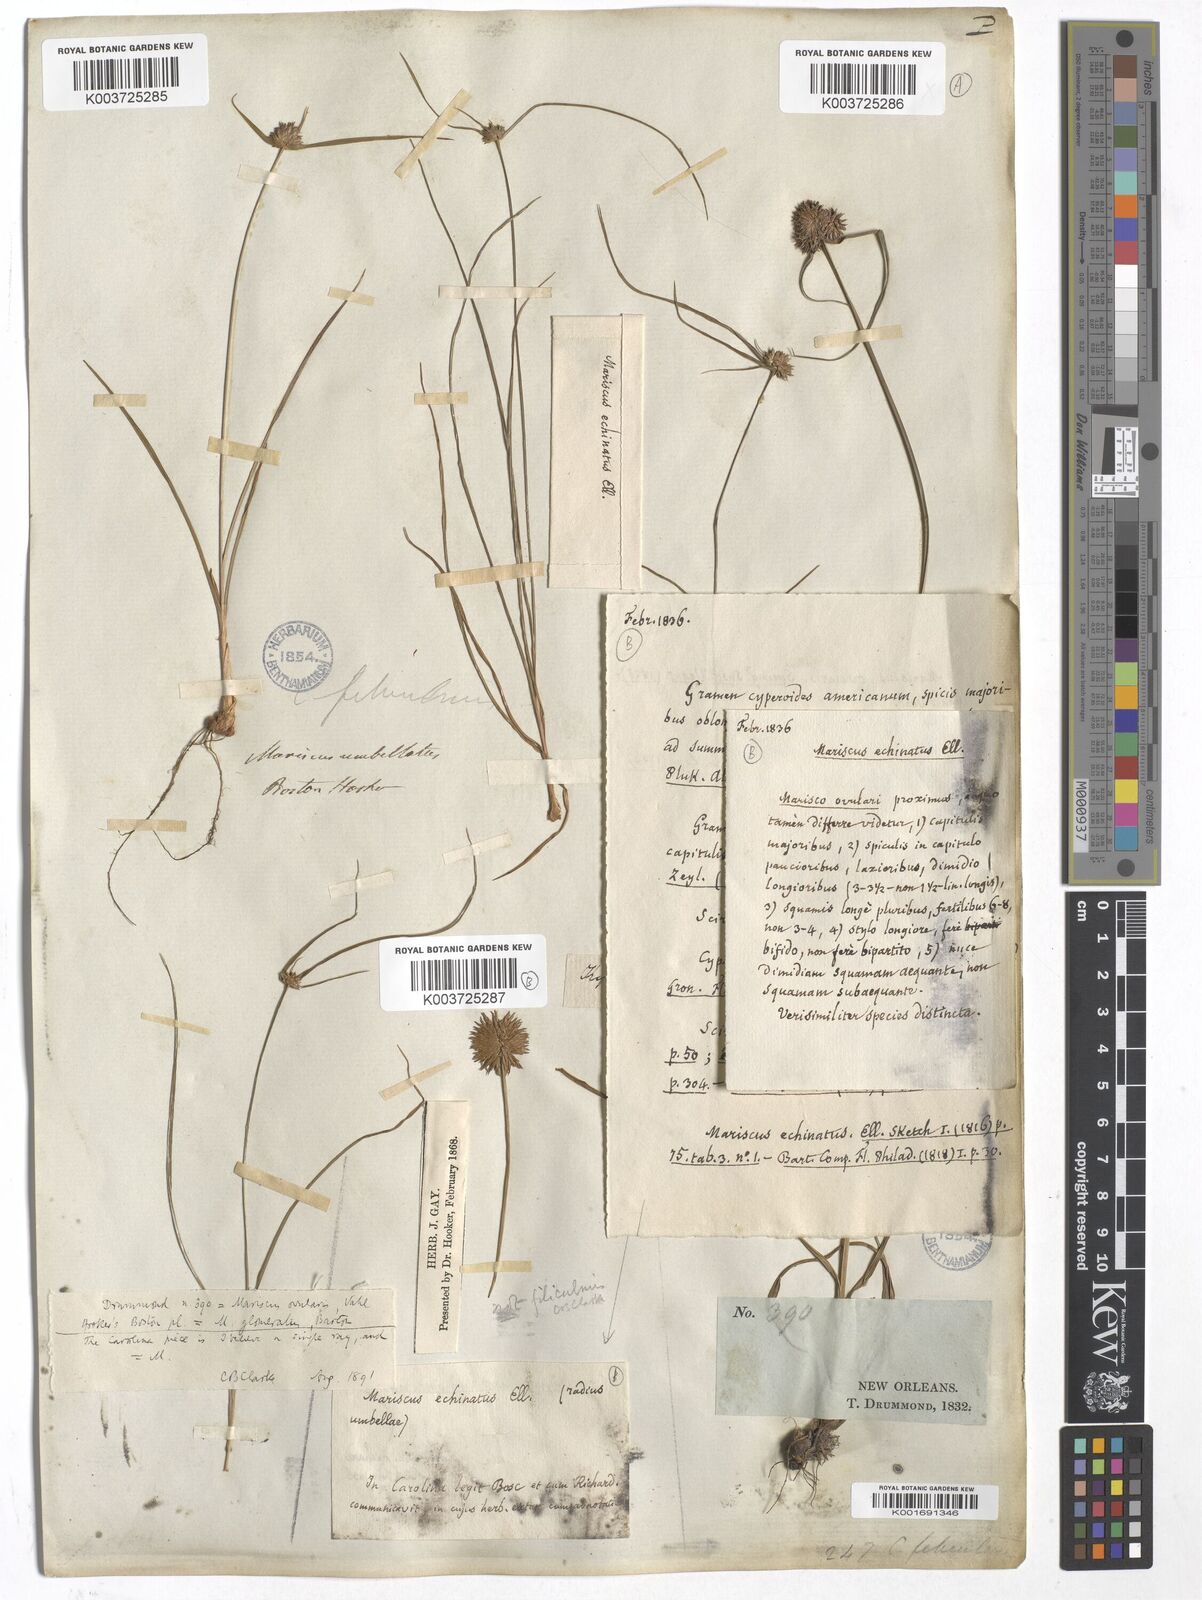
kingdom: Plantae
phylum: Tracheophyta
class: Liliopsida
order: Poales
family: Cyperaceae
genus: Cyperus
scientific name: Cyperus echinatus
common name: Teasel sedge
